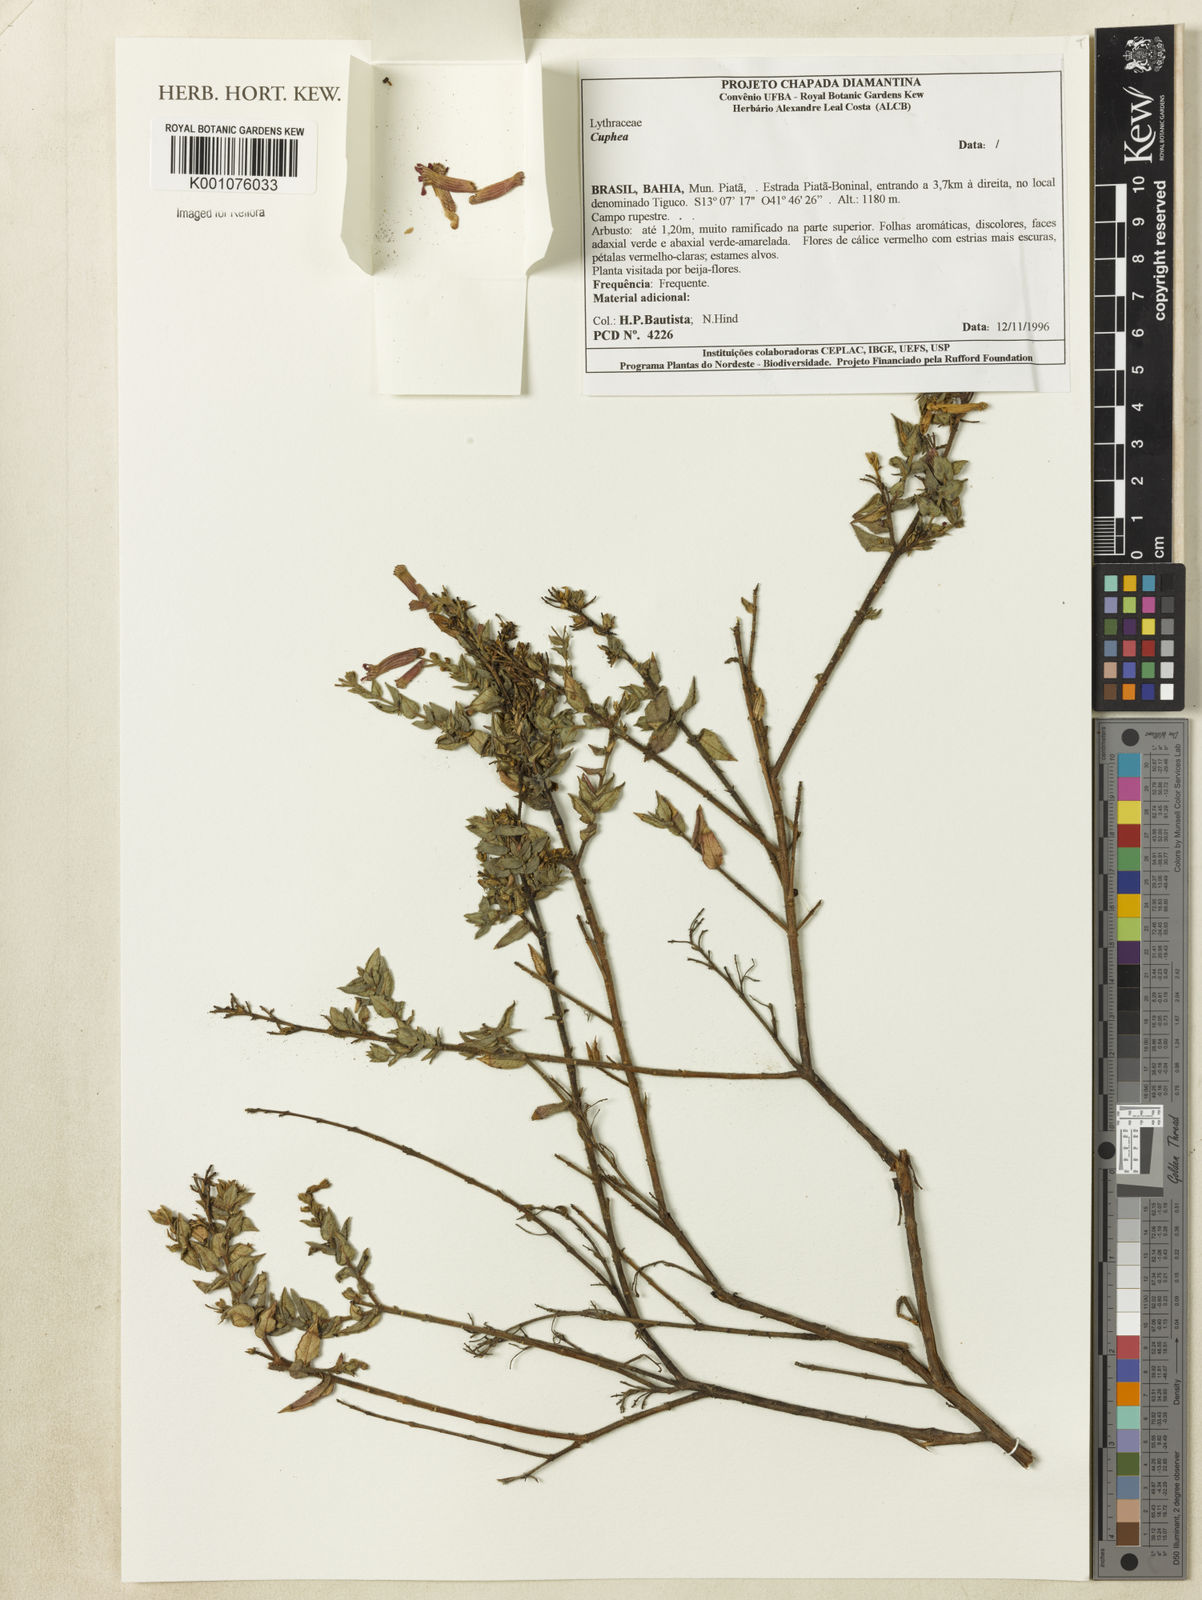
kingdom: Plantae
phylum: Tracheophyta
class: Magnoliopsida
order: Myrtales
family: Lythraceae
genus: Cuphea
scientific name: Cuphea pulchra
